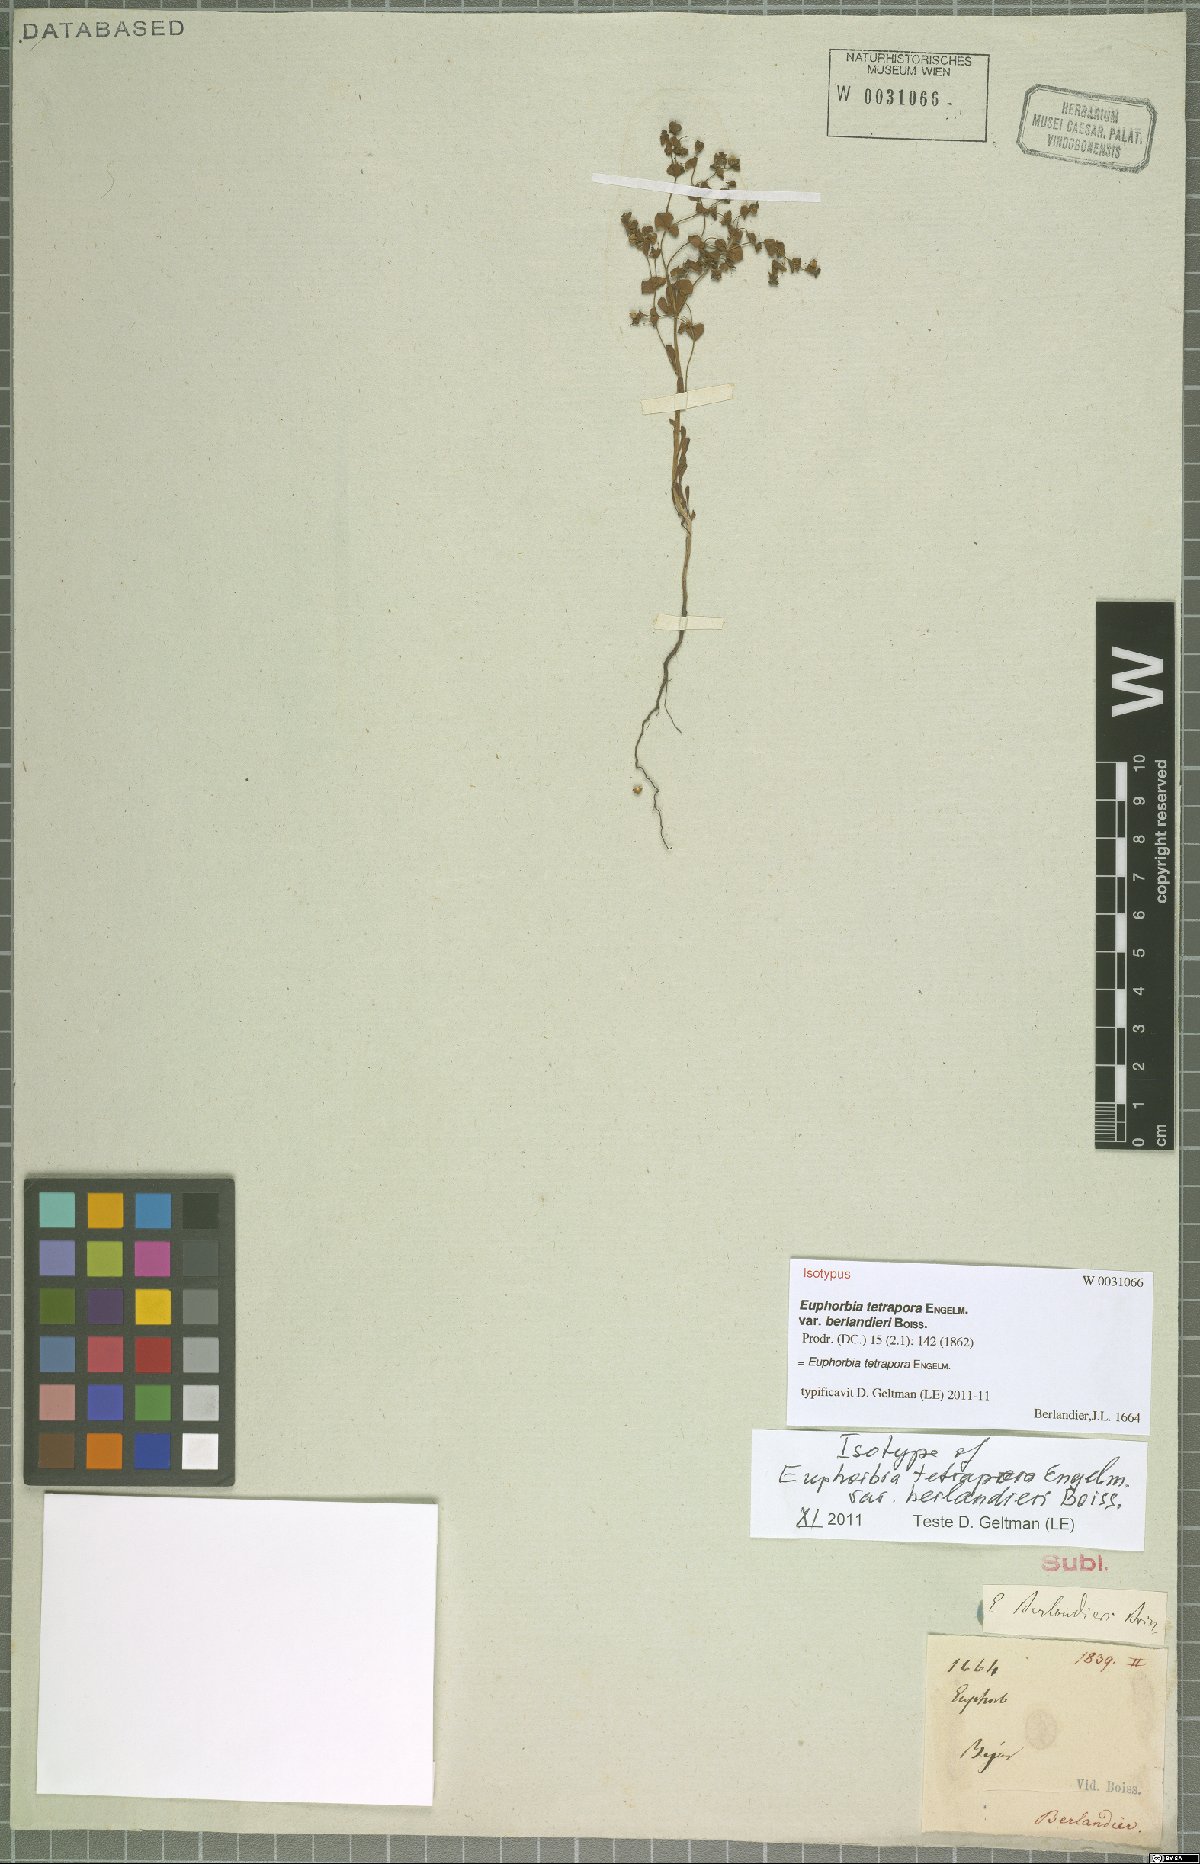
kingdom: Plantae
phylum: Tracheophyta
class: Magnoliopsida
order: Malpighiales
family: Euphorbiaceae
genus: Euphorbia
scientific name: Euphorbia tetrapora
